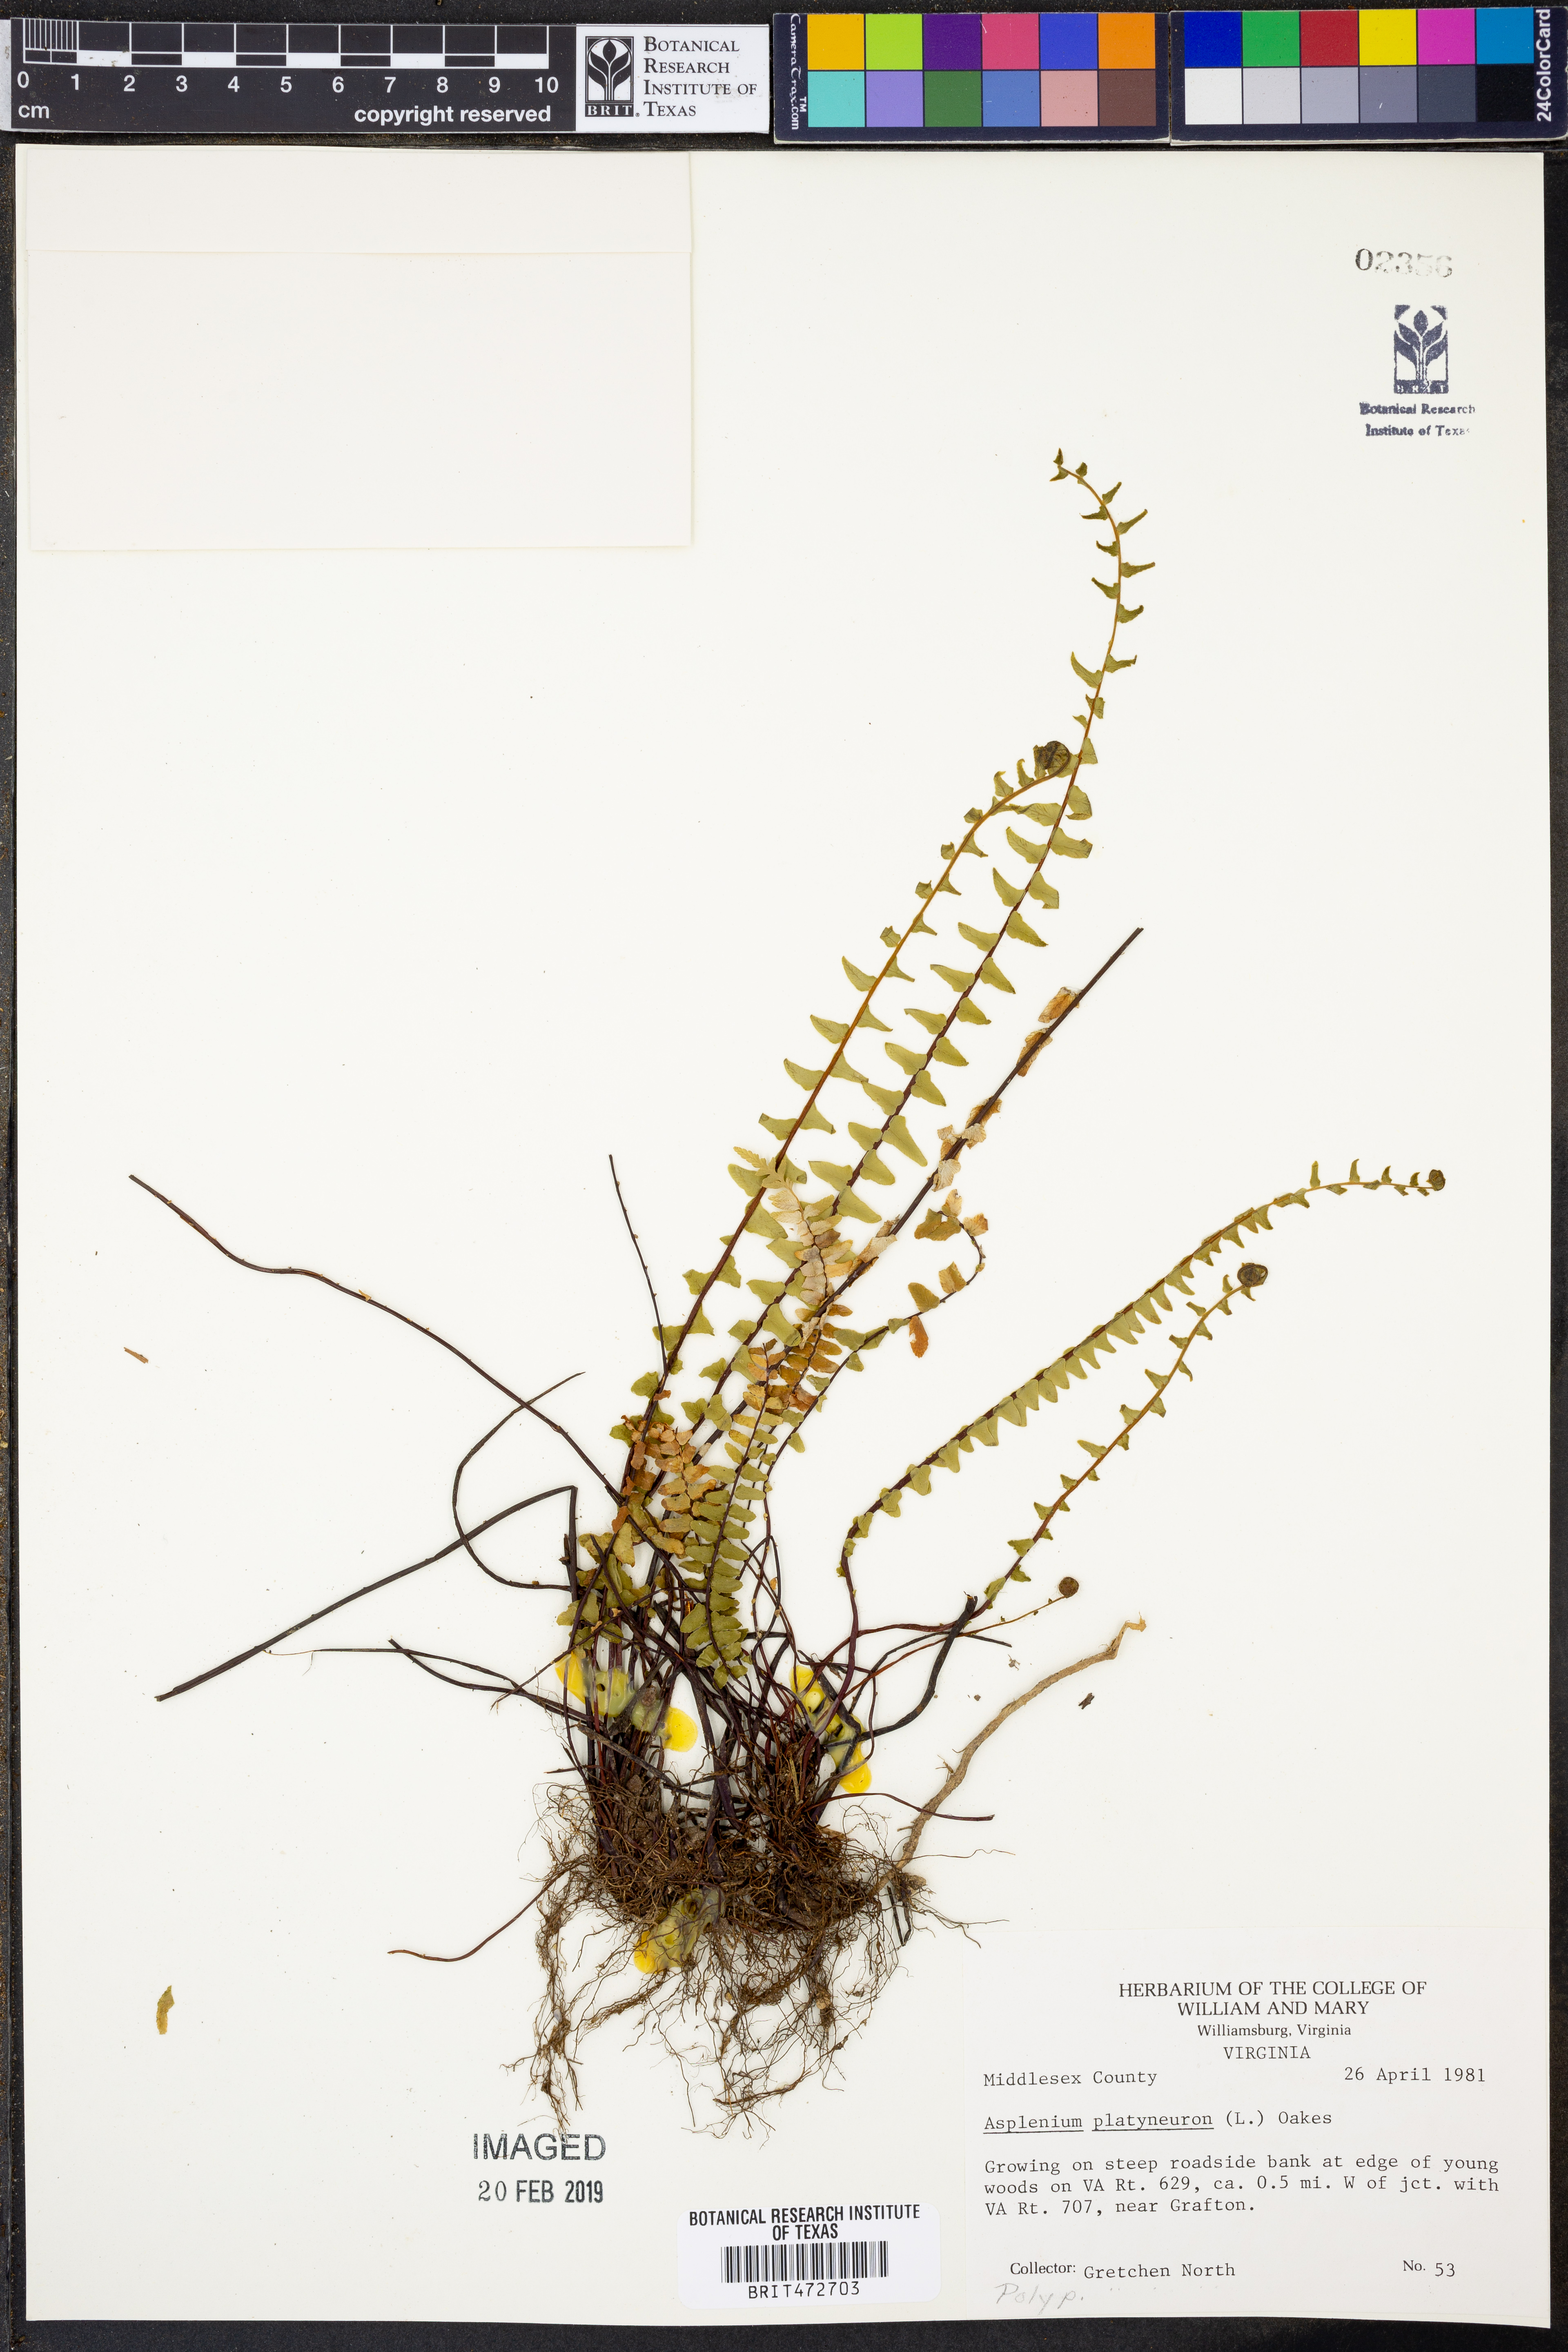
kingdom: Plantae
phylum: Tracheophyta
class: Polypodiopsida
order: Polypodiales
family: Aspleniaceae
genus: Asplenium
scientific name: Asplenium platyneuron
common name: Ebony spleenwort
